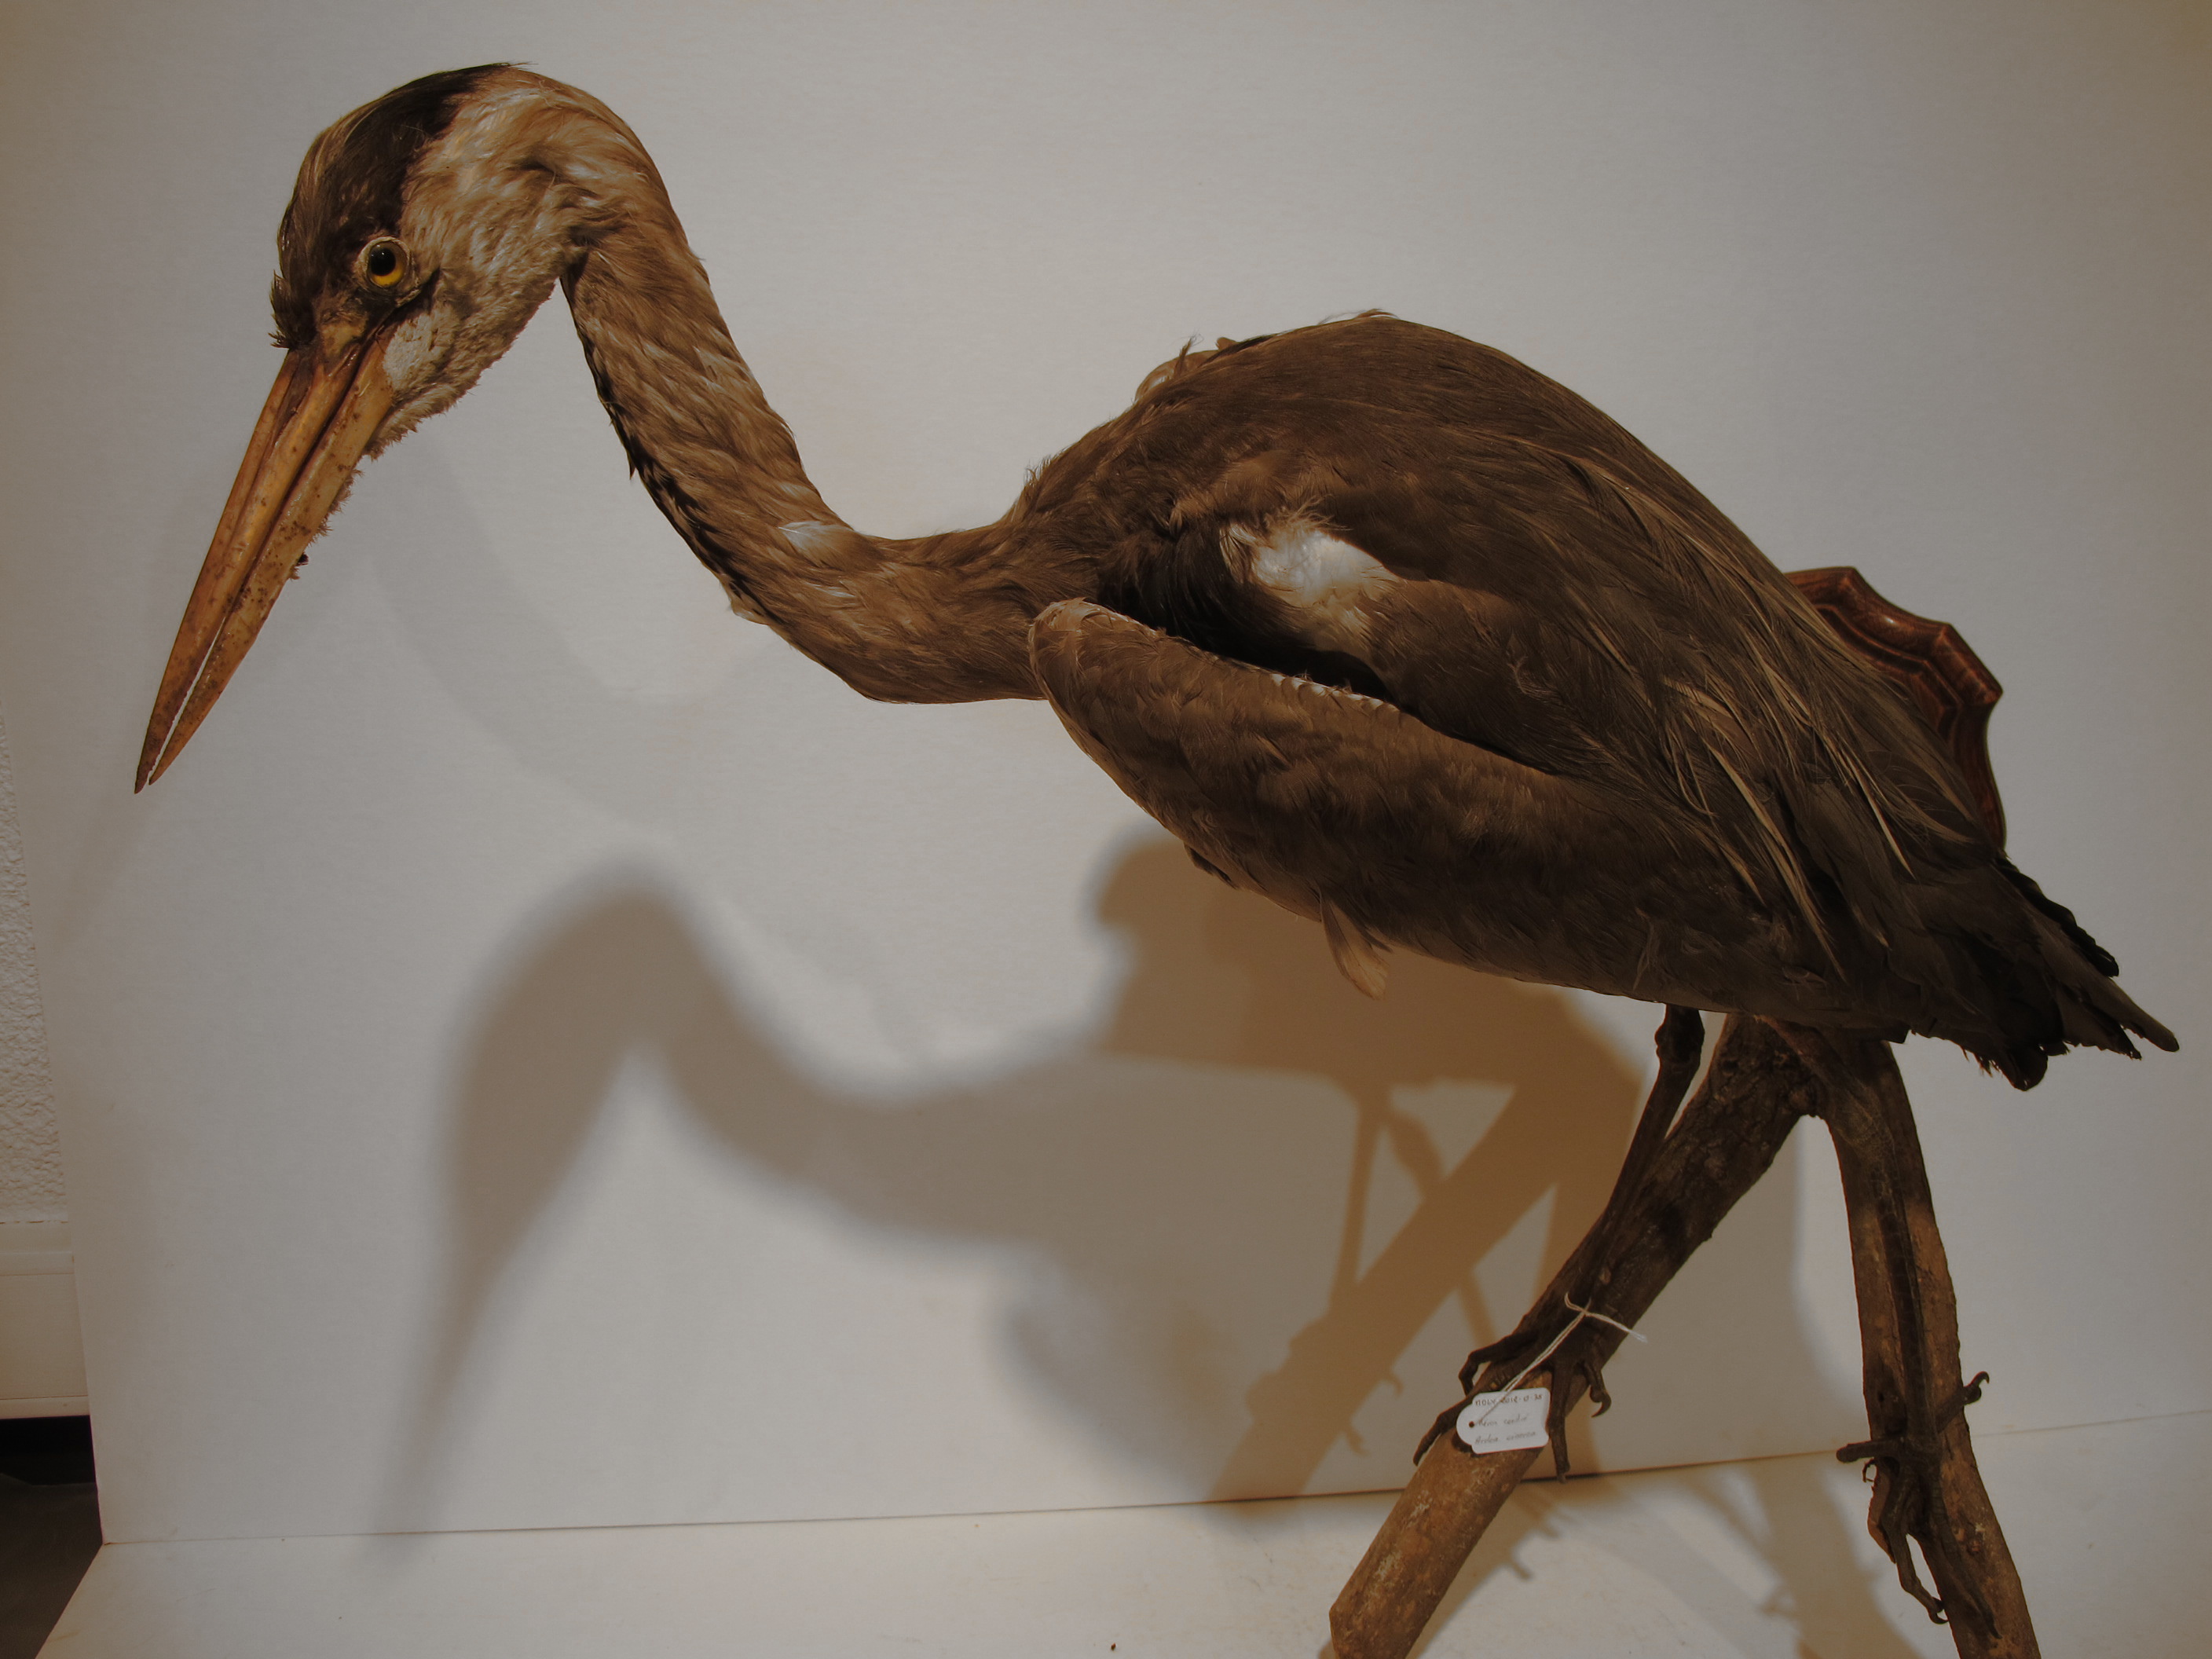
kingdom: Animalia
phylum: Chordata
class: Aves
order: Pelecaniformes
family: Ardeidae
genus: Ardea
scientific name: Ardea cinerea
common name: Grey Heron
